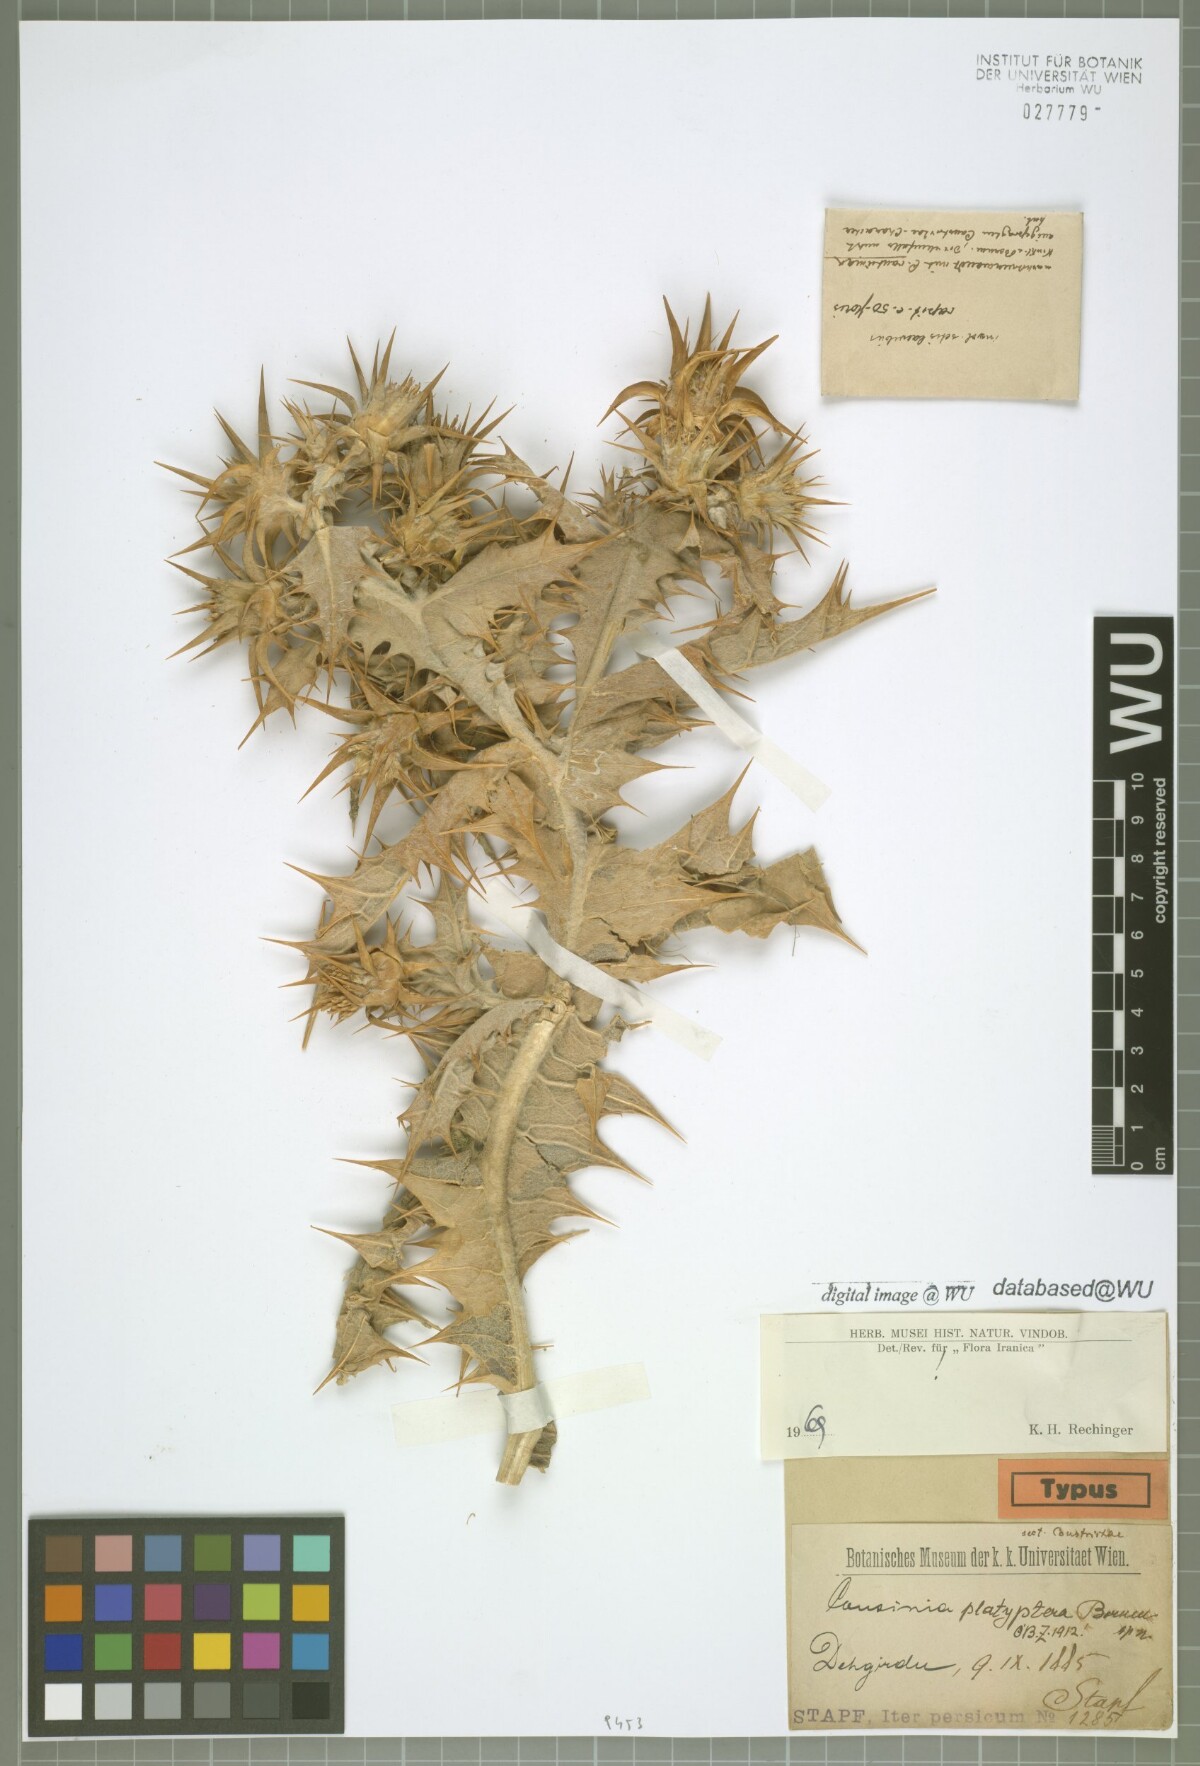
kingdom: Plantae
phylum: Tracheophyta
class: Magnoliopsida
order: Asterales
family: Asteraceae
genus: Cousinia
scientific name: Cousinia platyptera
